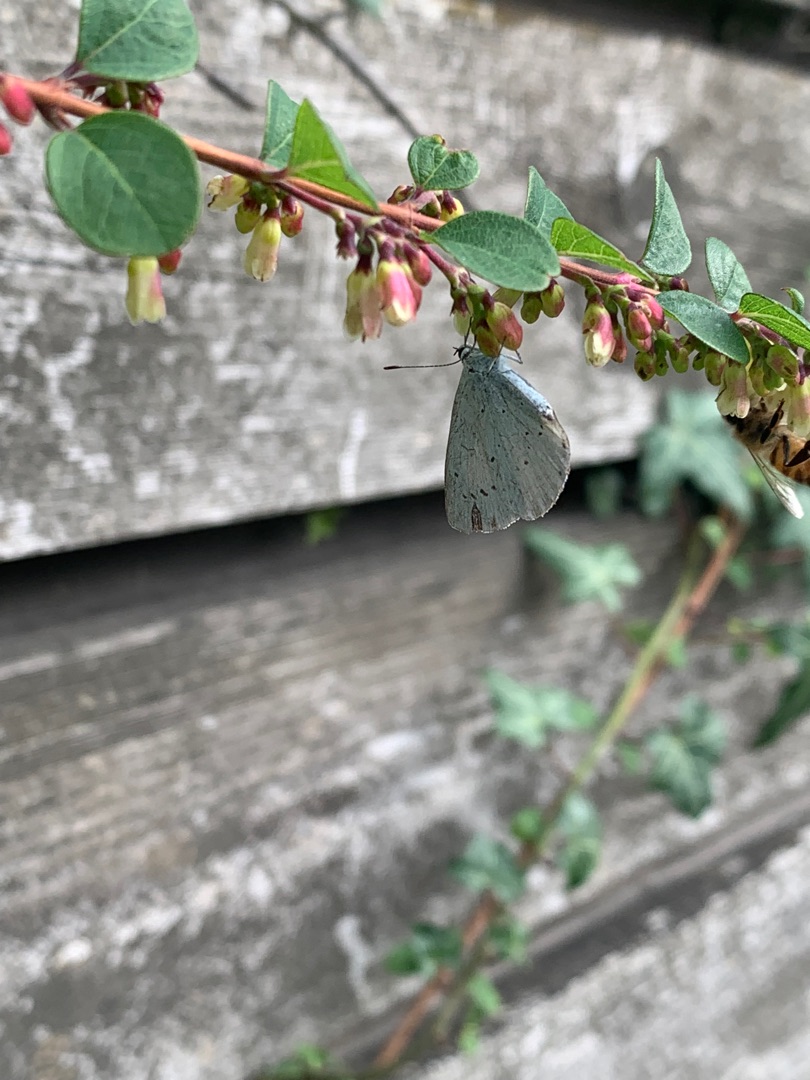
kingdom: Animalia
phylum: Arthropoda
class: Insecta
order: Lepidoptera
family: Lycaenidae
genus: Celastrina
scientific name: Celastrina argiolus
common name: Skovblåfugl
